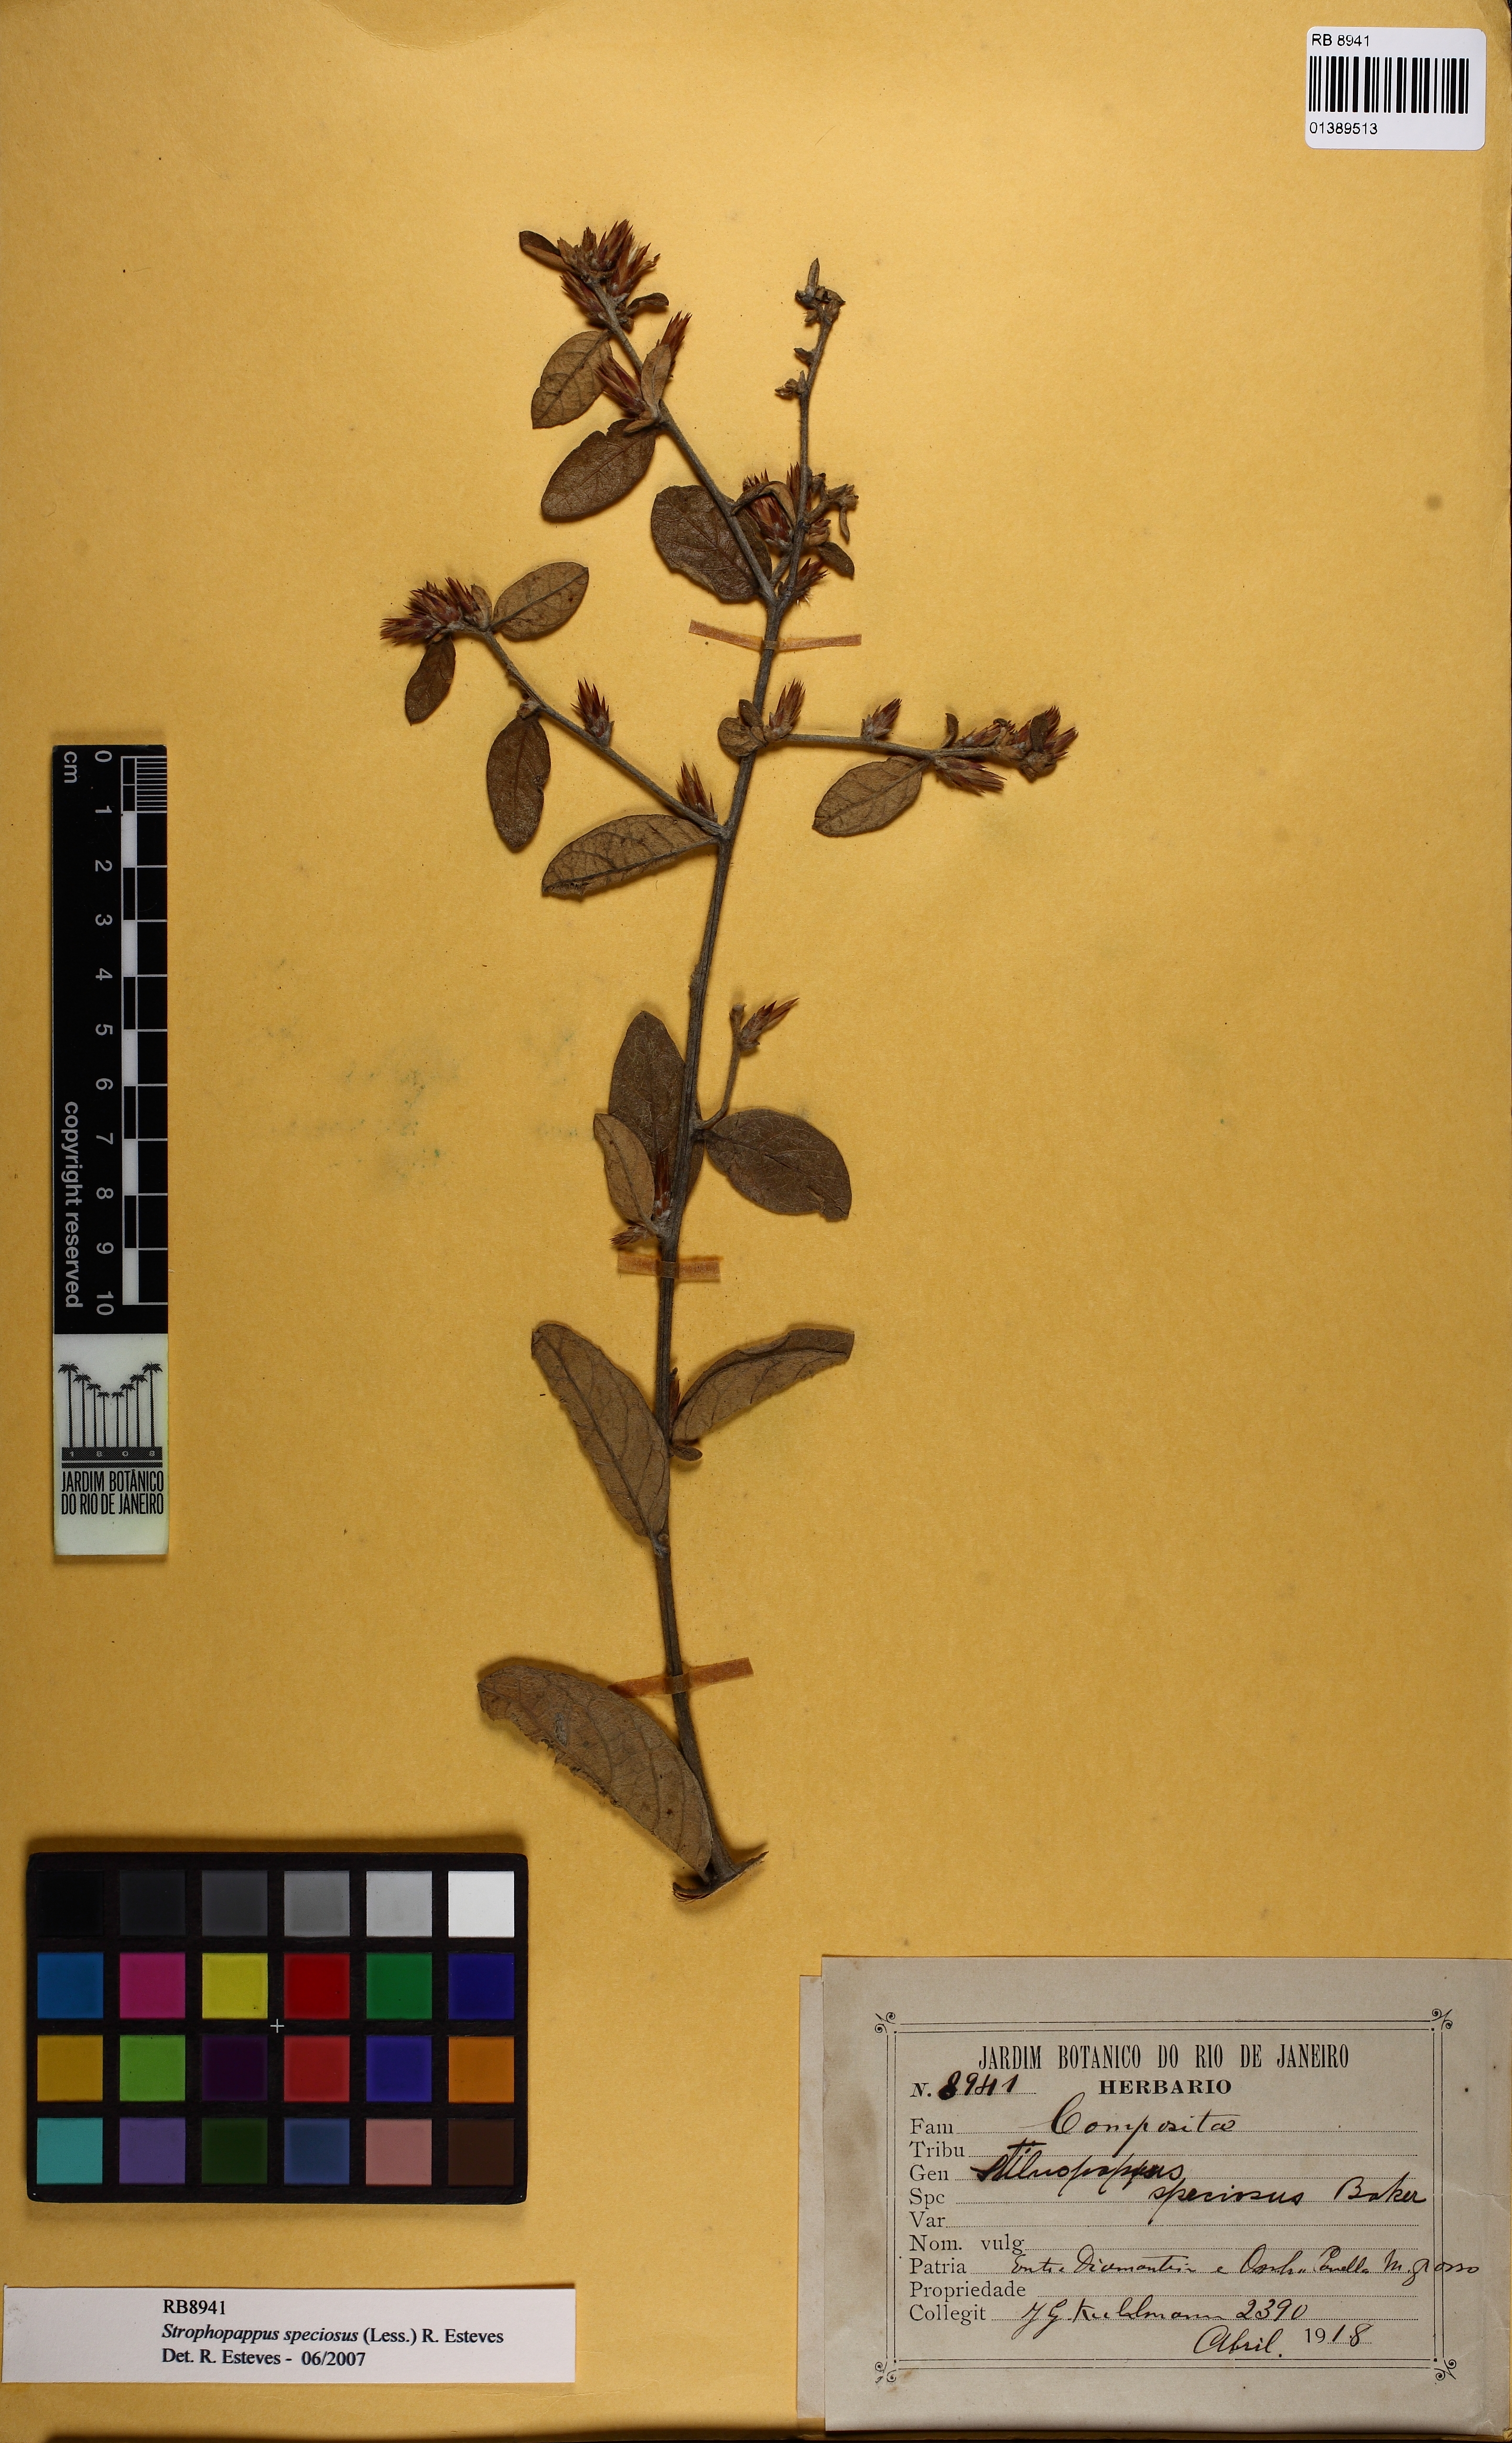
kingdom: Plantae
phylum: Tracheophyta
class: Magnoliopsida
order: Asterales
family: Asteraceae
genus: Stilpnopappus
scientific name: Stilpnopappus speciosus
